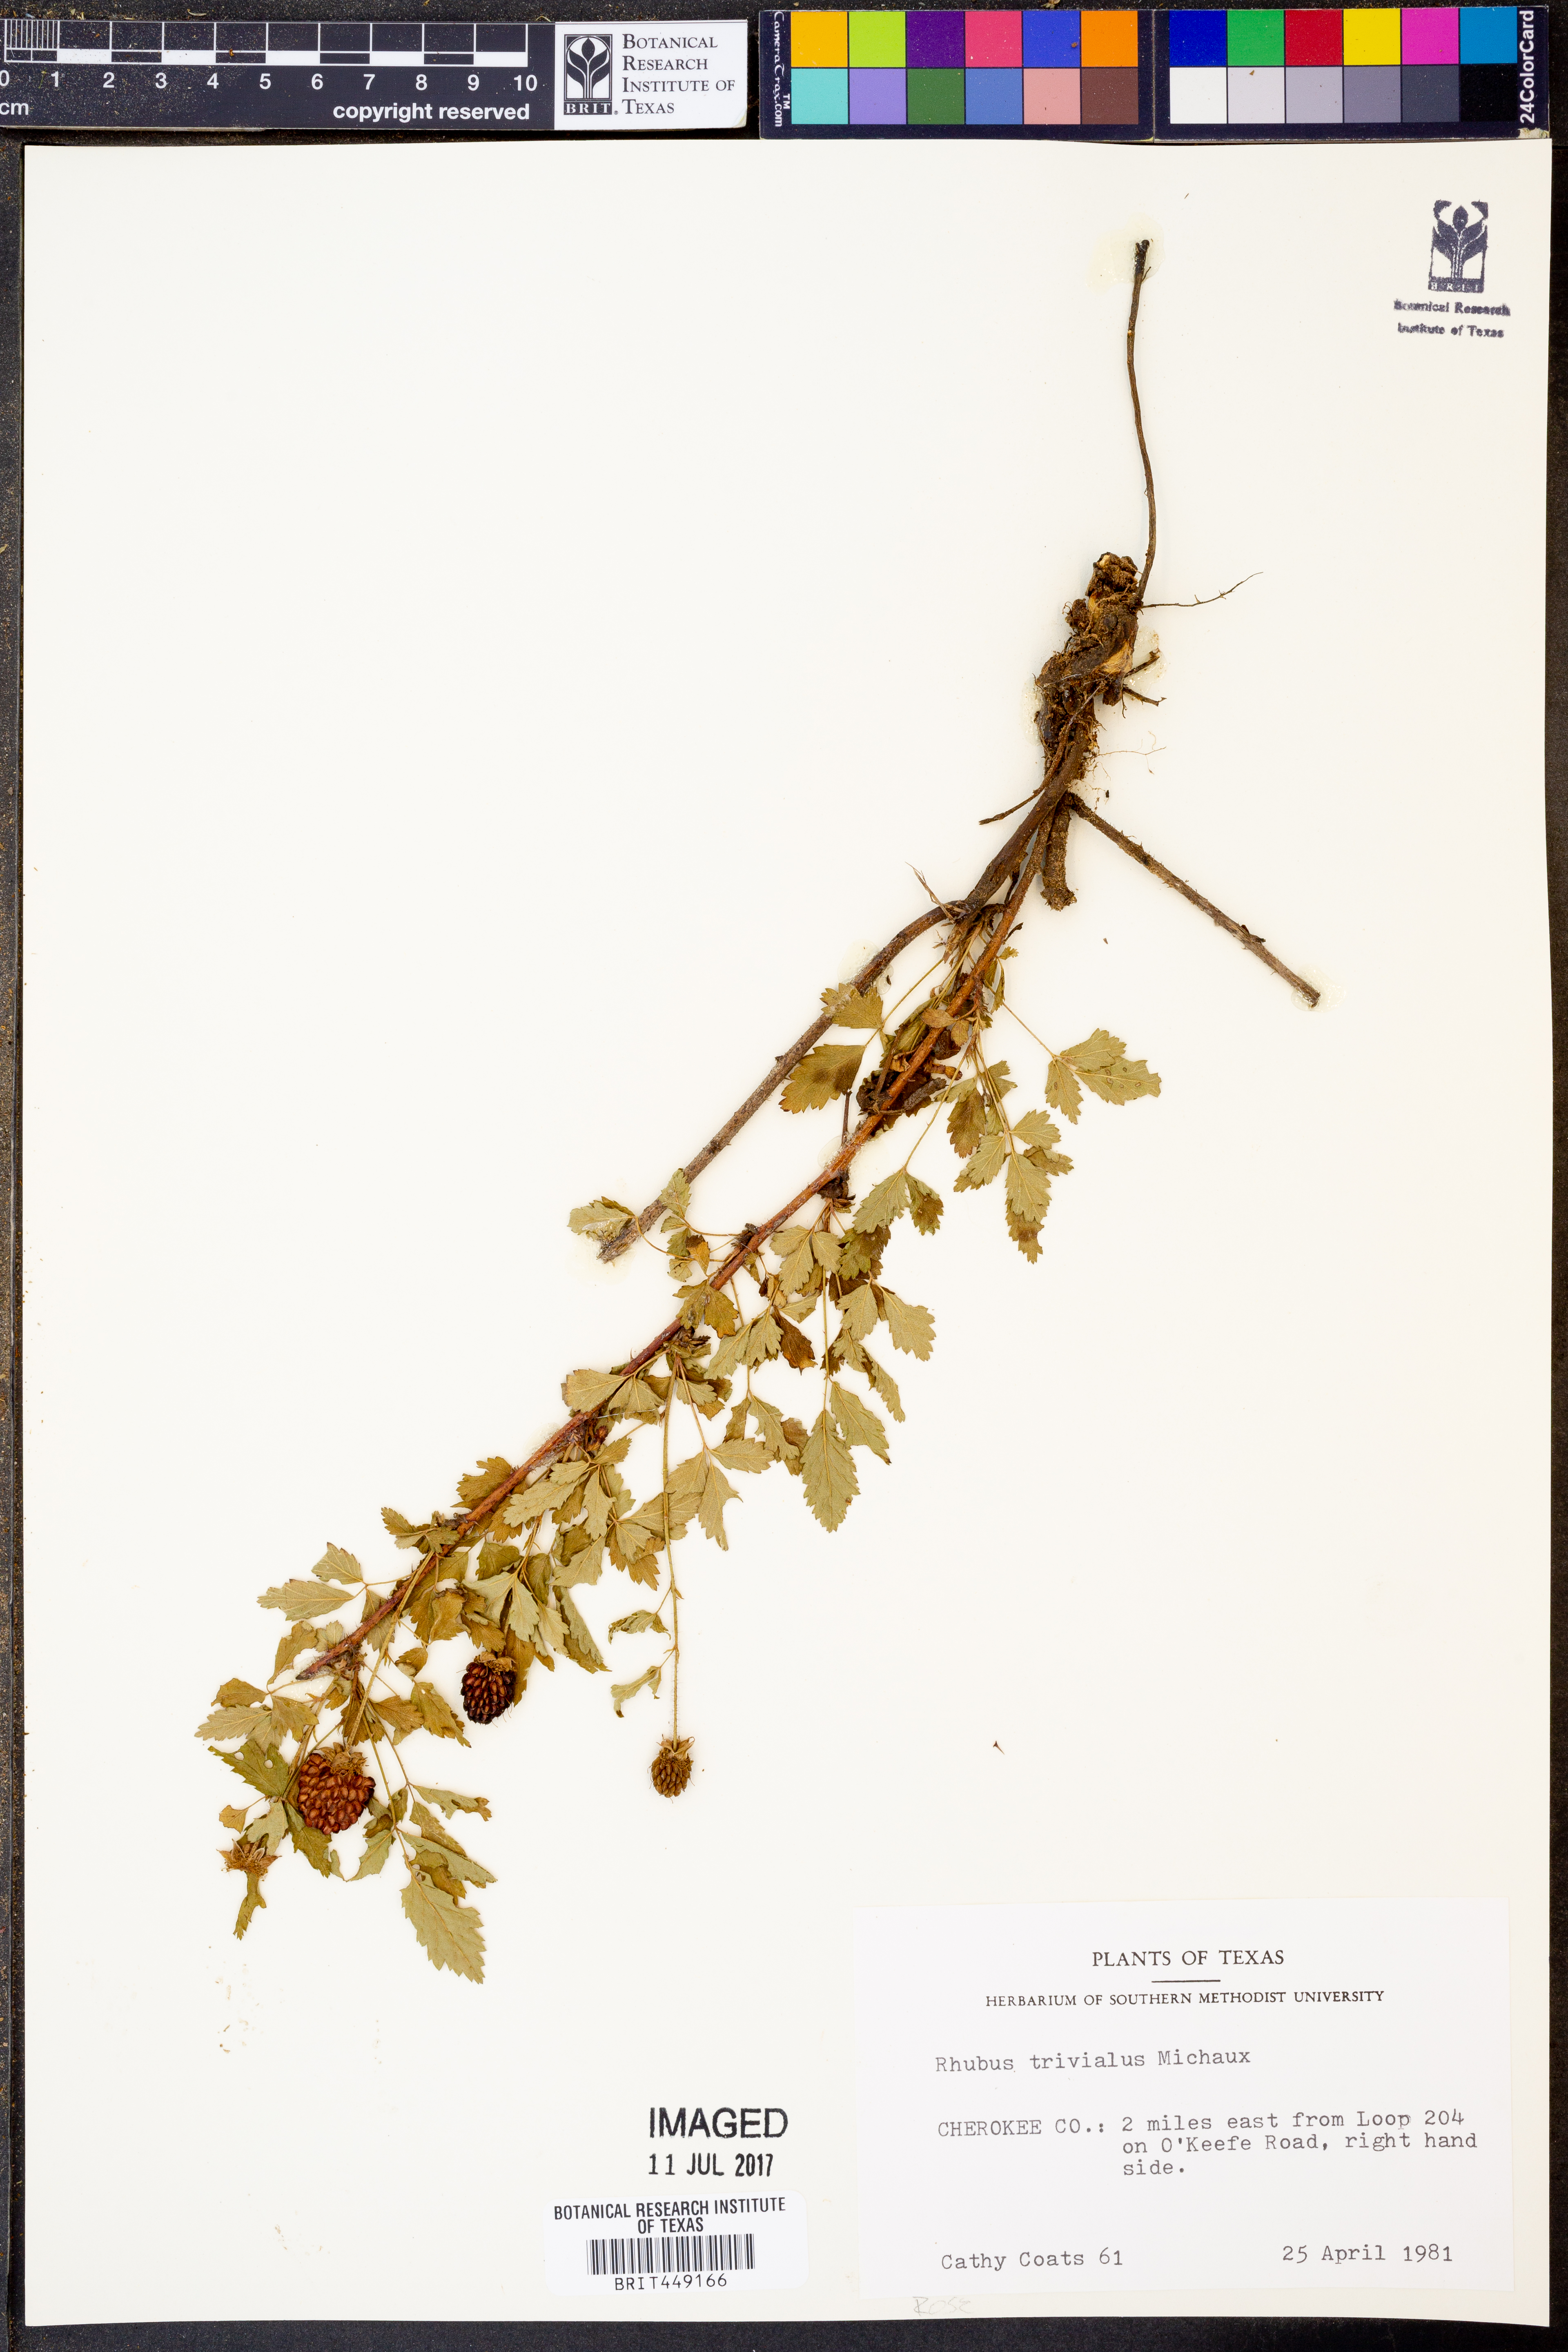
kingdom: Plantae
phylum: Tracheophyta
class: Magnoliopsida
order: Rosales
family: Rosaceae
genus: Rubus
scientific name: Rubus trivialis
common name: Southern dewberry
